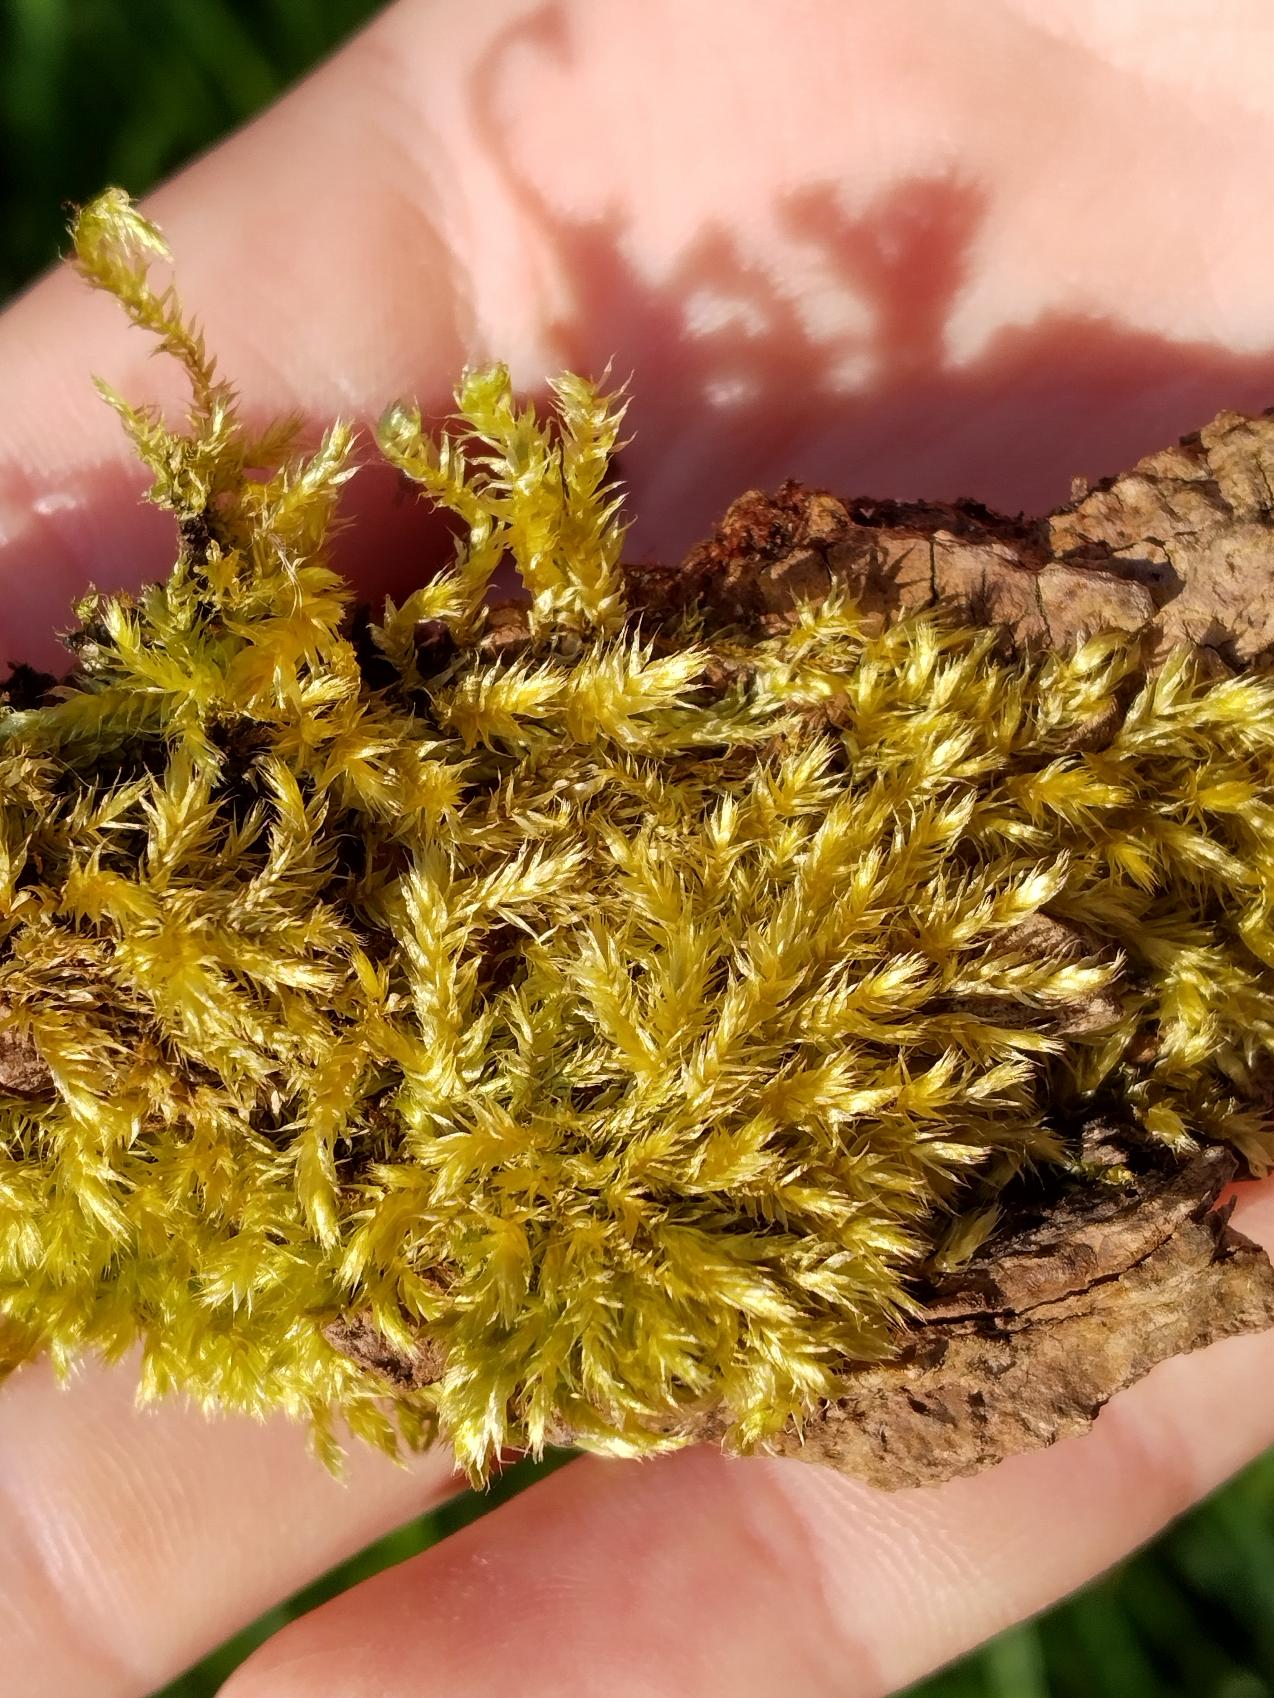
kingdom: Plantae
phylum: Bryophyta
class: Bryopsida
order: Hypnales
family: Brachytheciaceae
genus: Brachythecium
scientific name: Brachythecium
